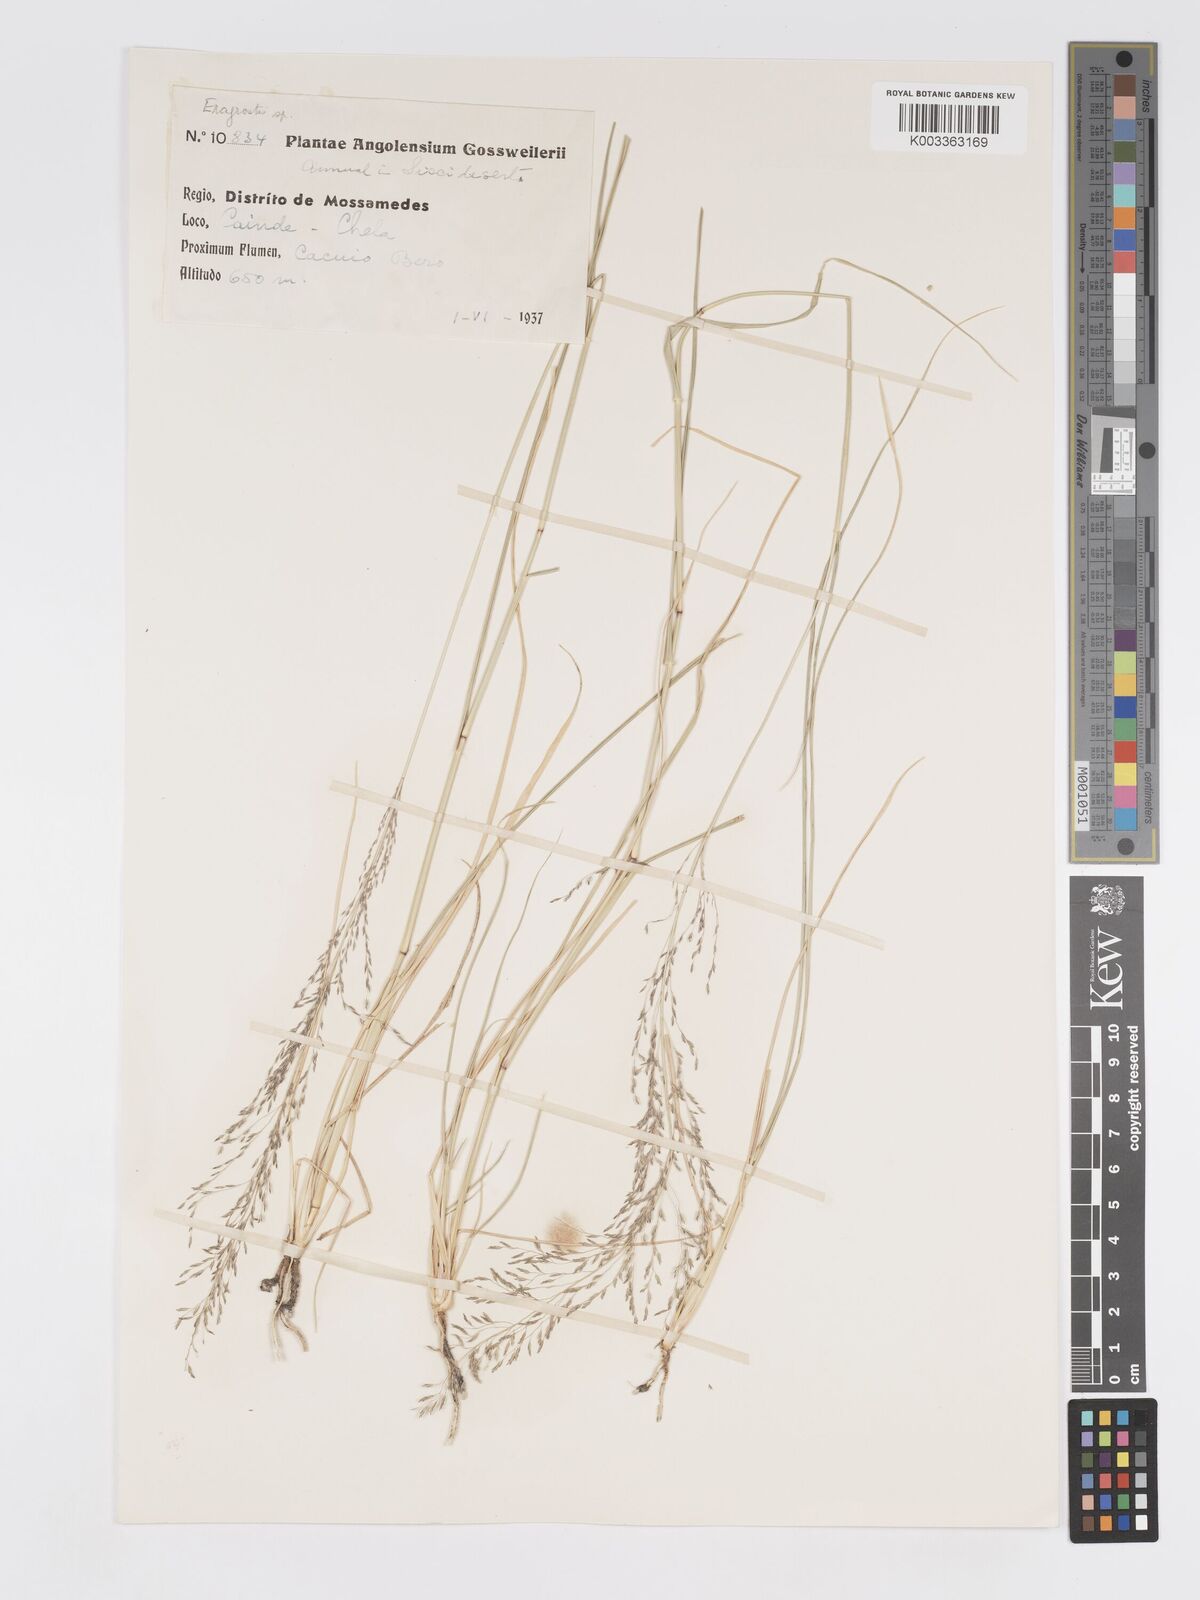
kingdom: Plantae
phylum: Tracheophyta
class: Liliopsida
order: Poales
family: Poaceae
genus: Eragrostis
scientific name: Eragrostis cylindriflora
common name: Cylinderflower lovegrass
